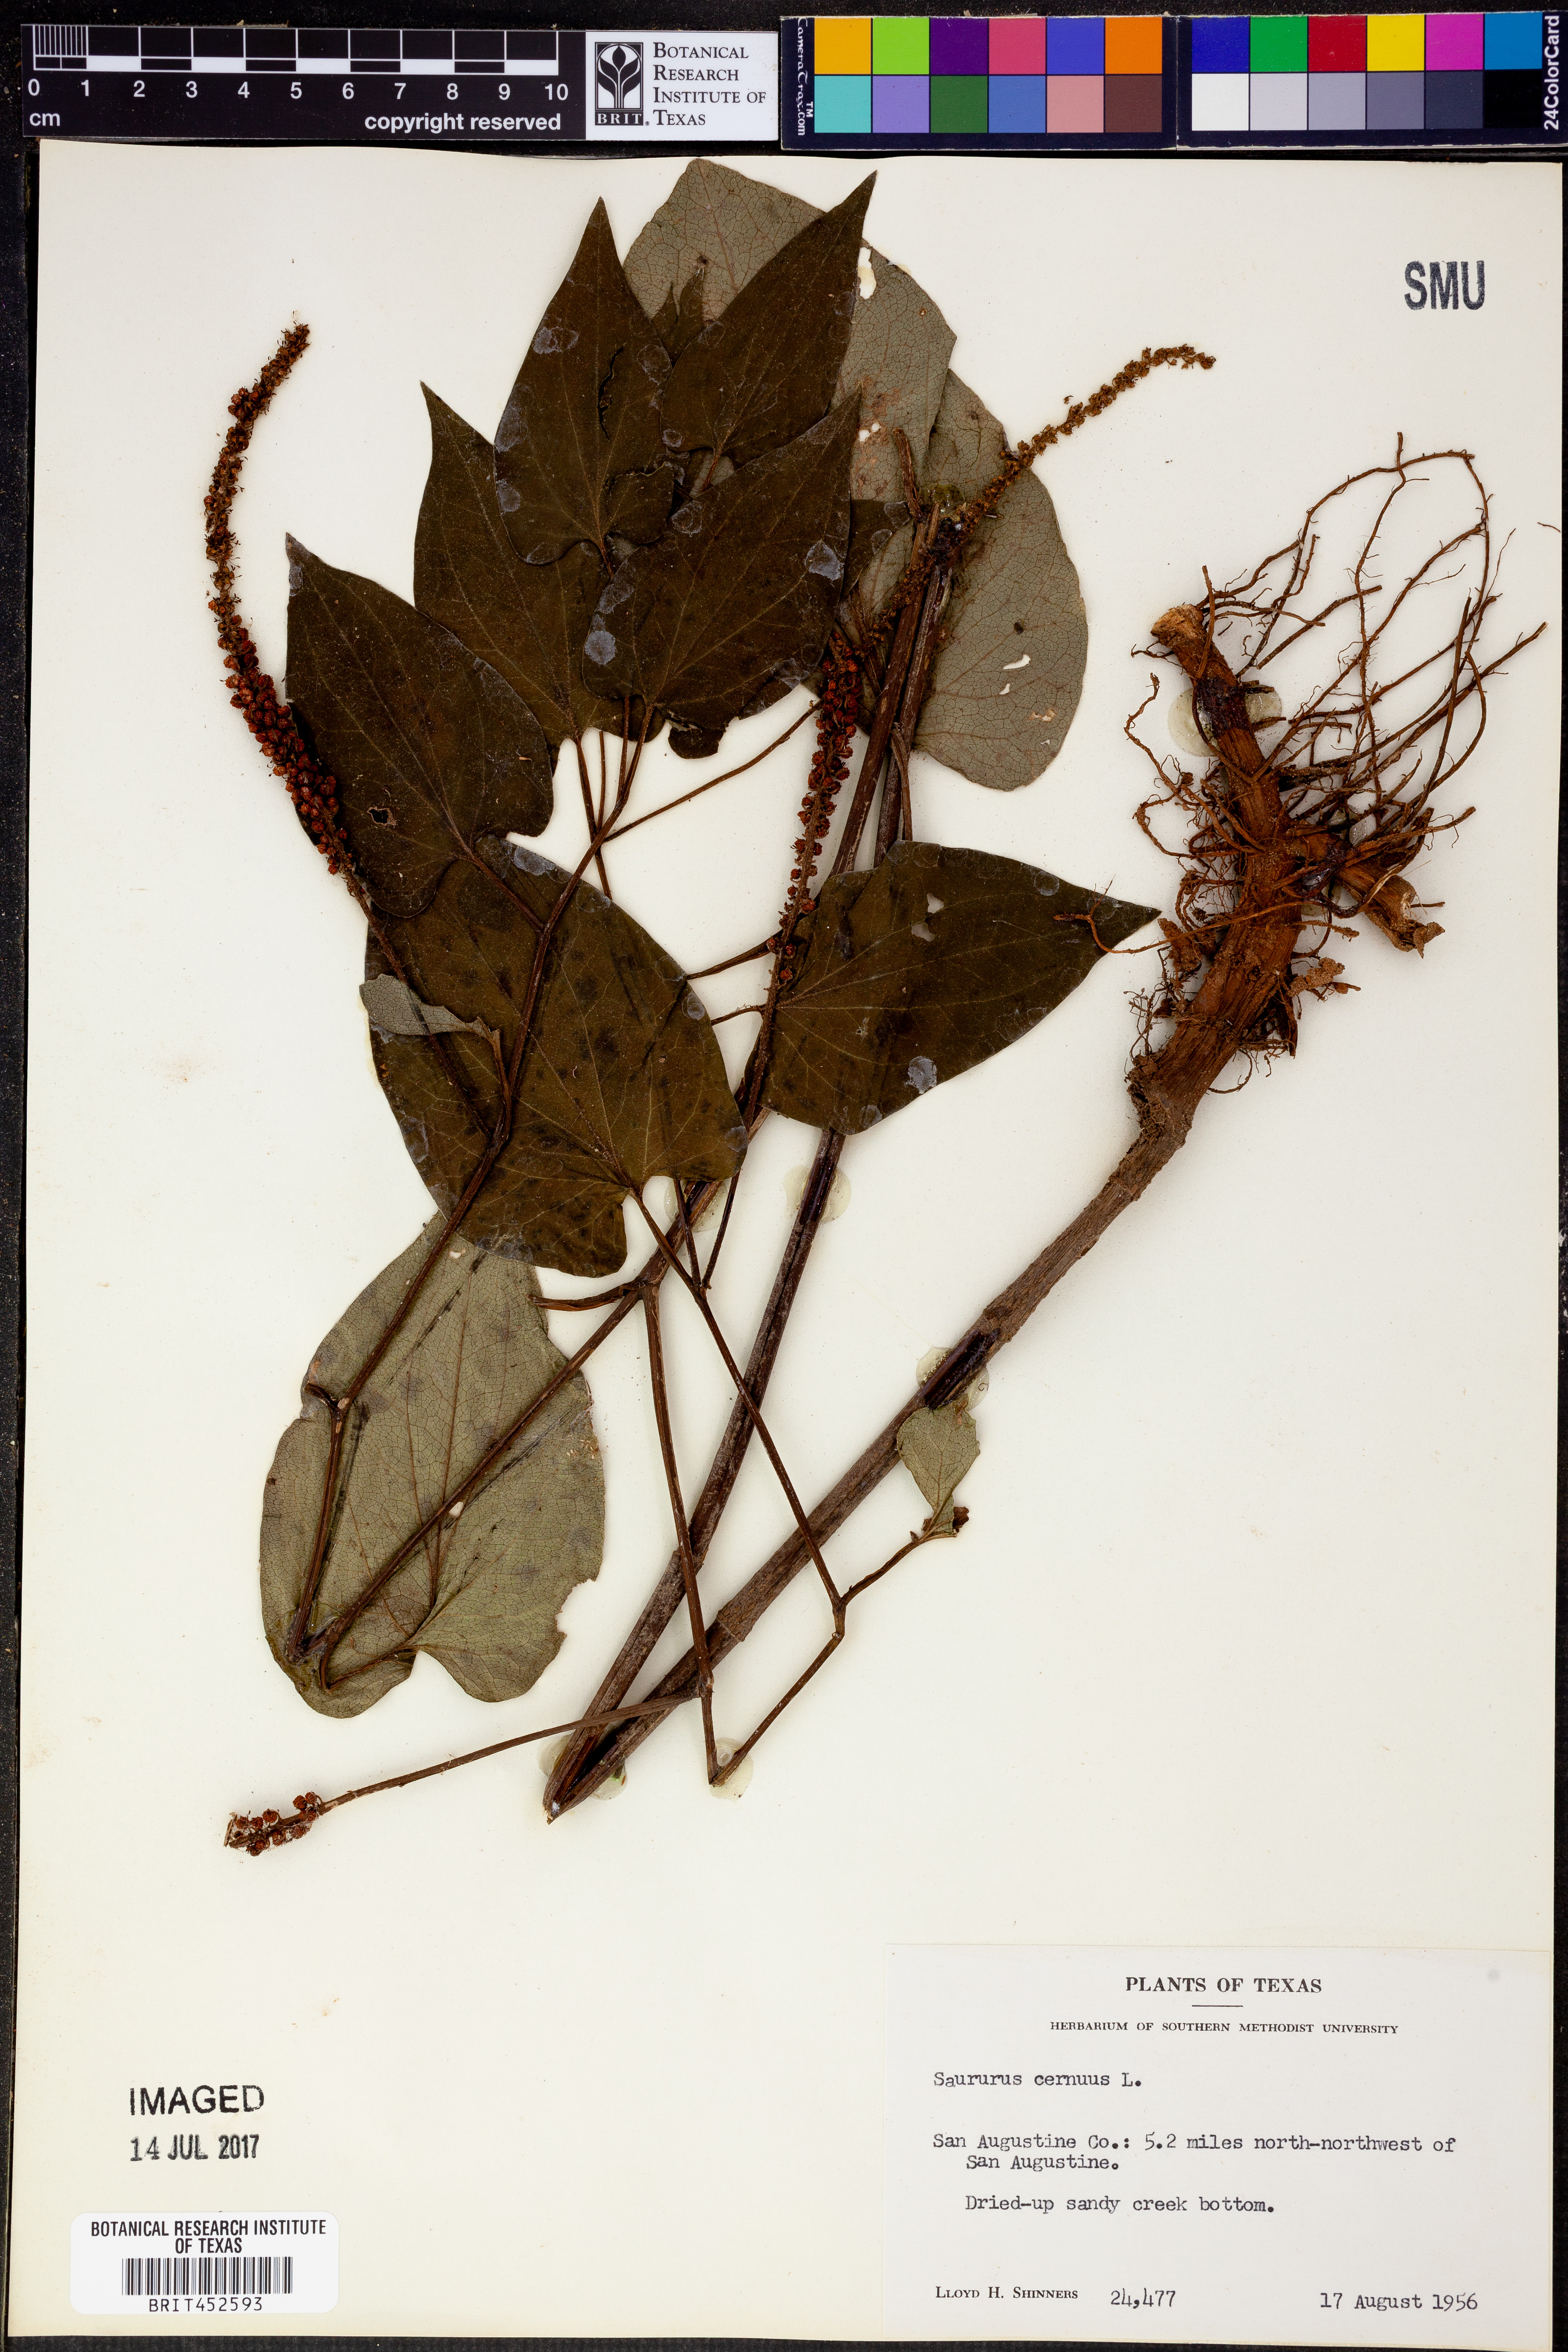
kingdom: Plantae
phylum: Tracheophyta
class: Magnoliopsida
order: Piperales
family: Saururaceae
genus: Saururus
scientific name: Saururus cernuus
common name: Lizard's-tail
